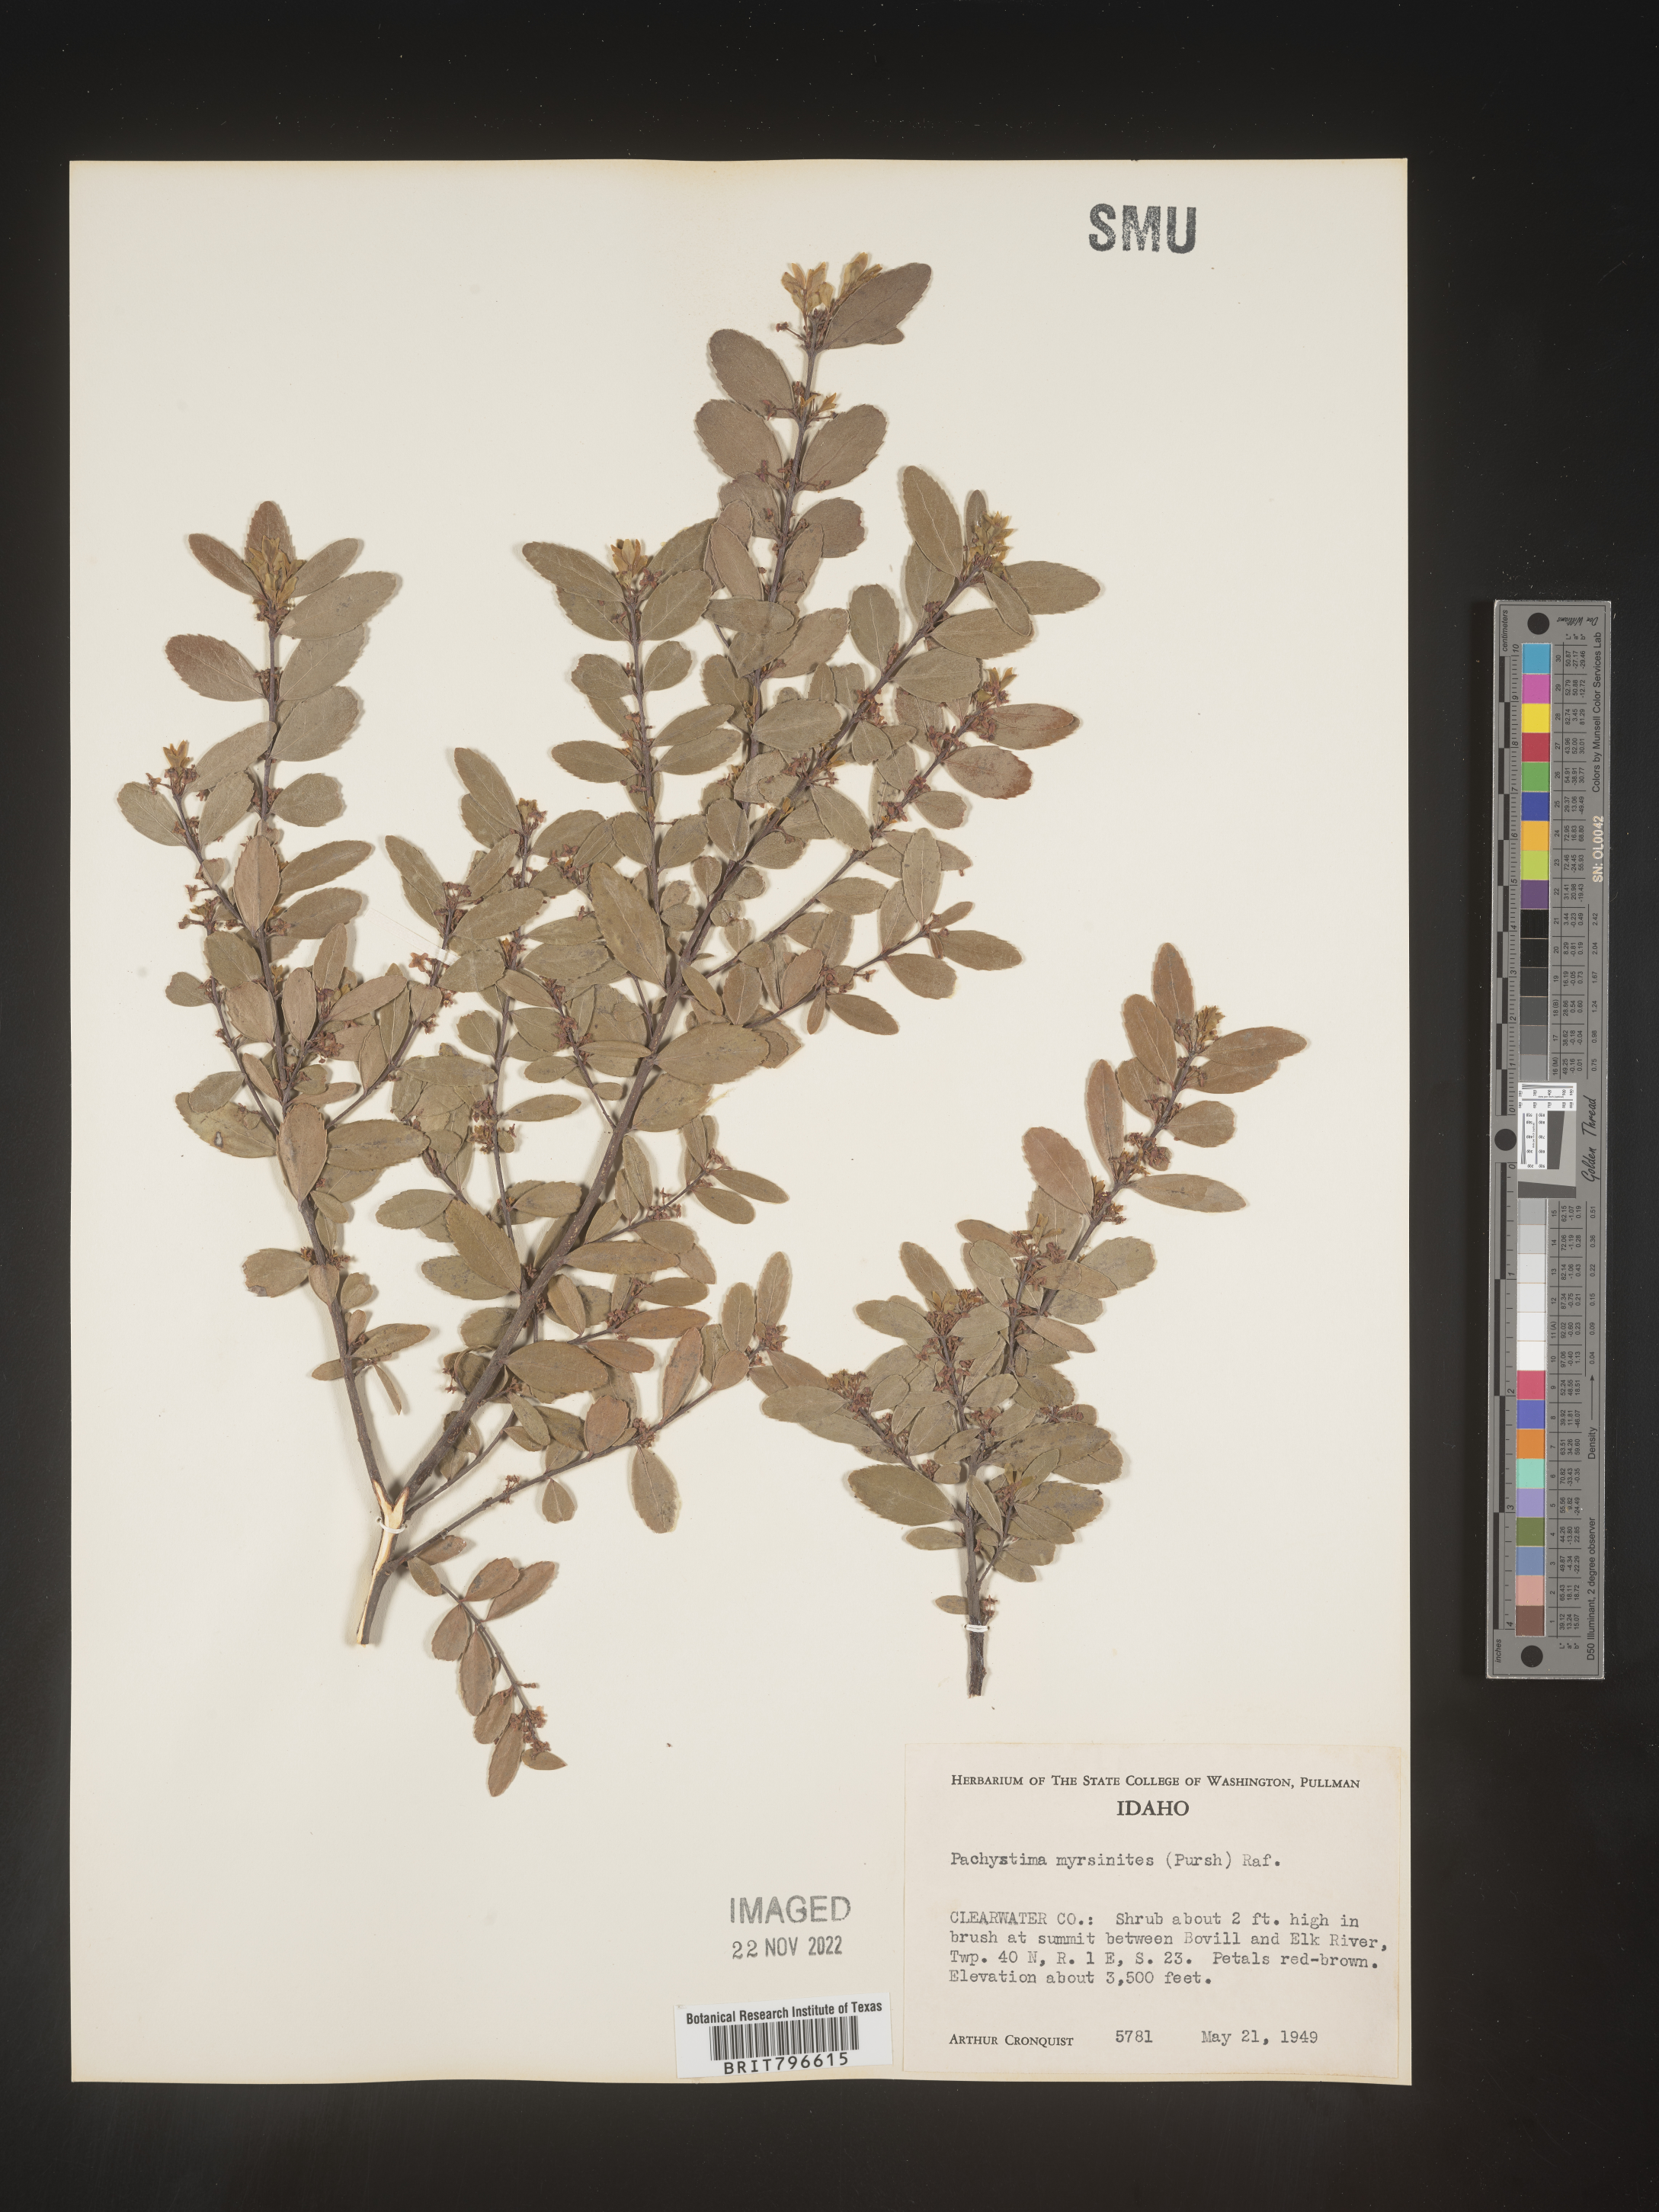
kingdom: Plantae
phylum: Tracheophyta
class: Magnoliopsida
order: Celastrales
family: Celastraceae
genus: Paxistima
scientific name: Paxistima myrsinites
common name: Mountain-lover
